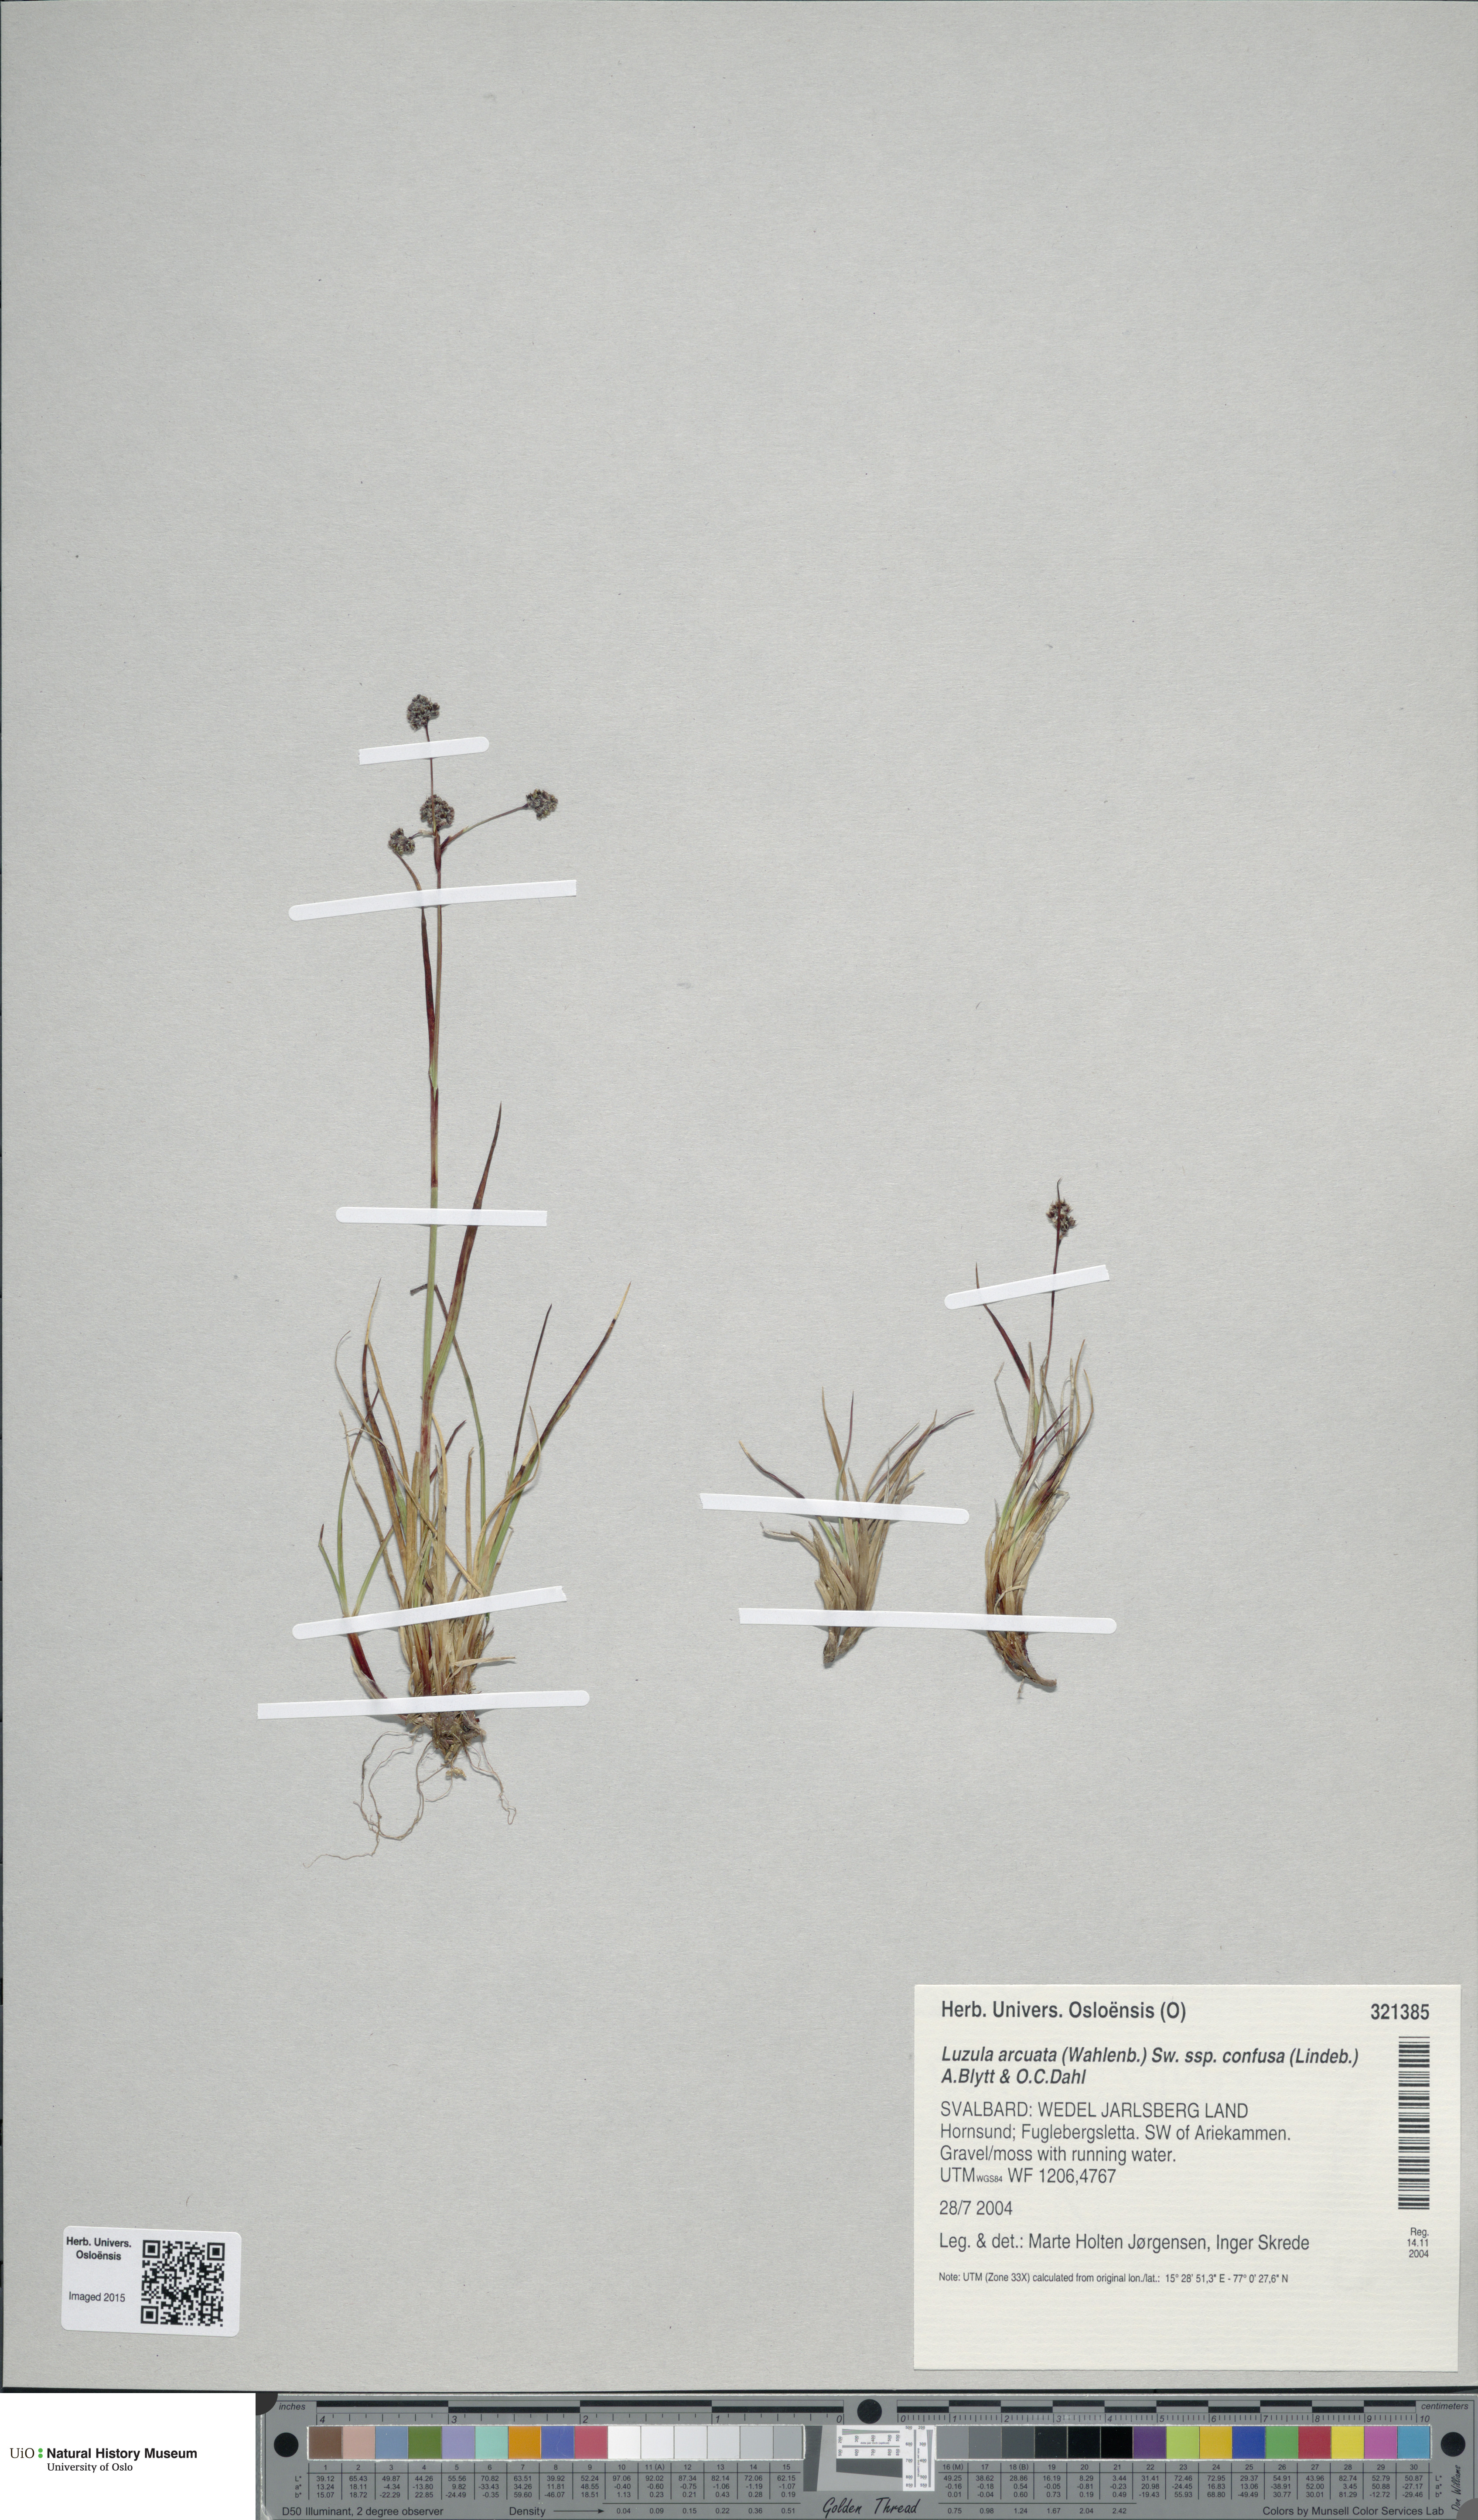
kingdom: Plantae
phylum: Tracheophyta
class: Liliopsida
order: Poales
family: Juncaceae
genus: Luzula
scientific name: Luzula confusa
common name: Northern wood rush
